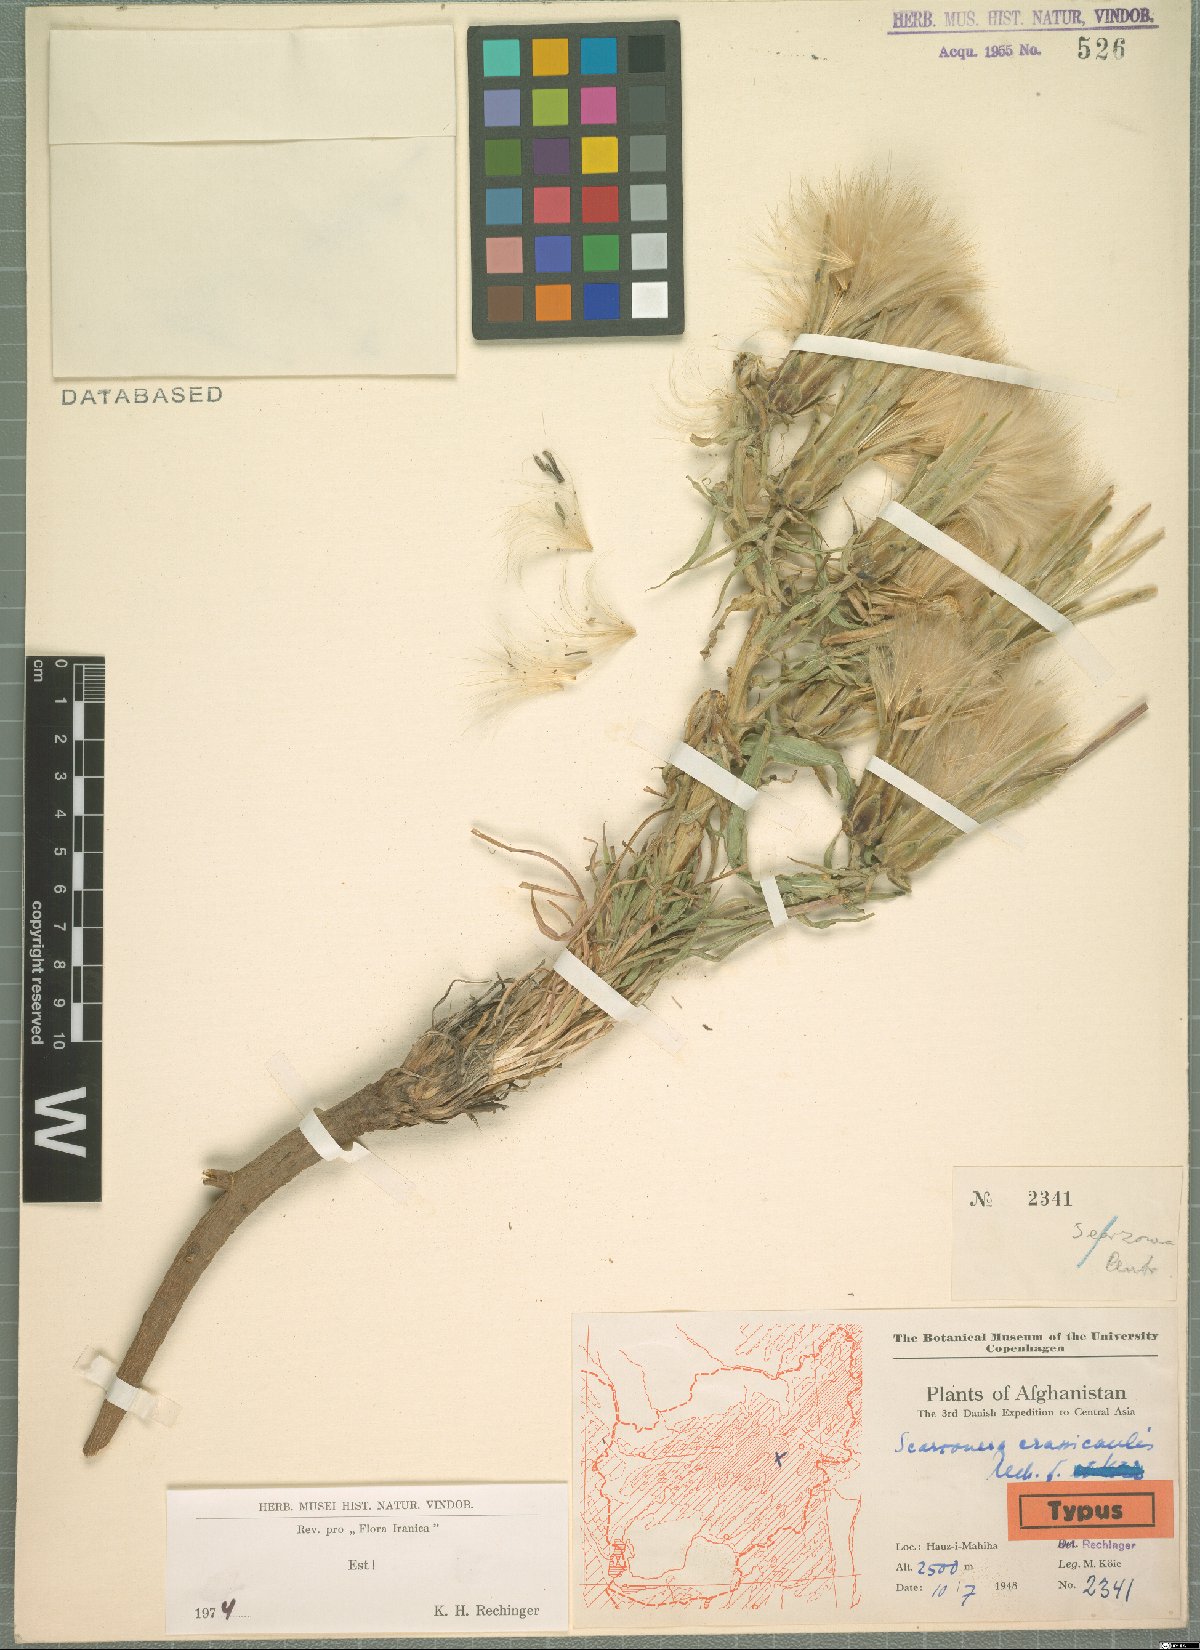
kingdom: Plantae
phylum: Tracheophyta
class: Magnoliopsida
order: Asterales
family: Asteraceae
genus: Scorzonera
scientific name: Scorzonera crassicaulis
